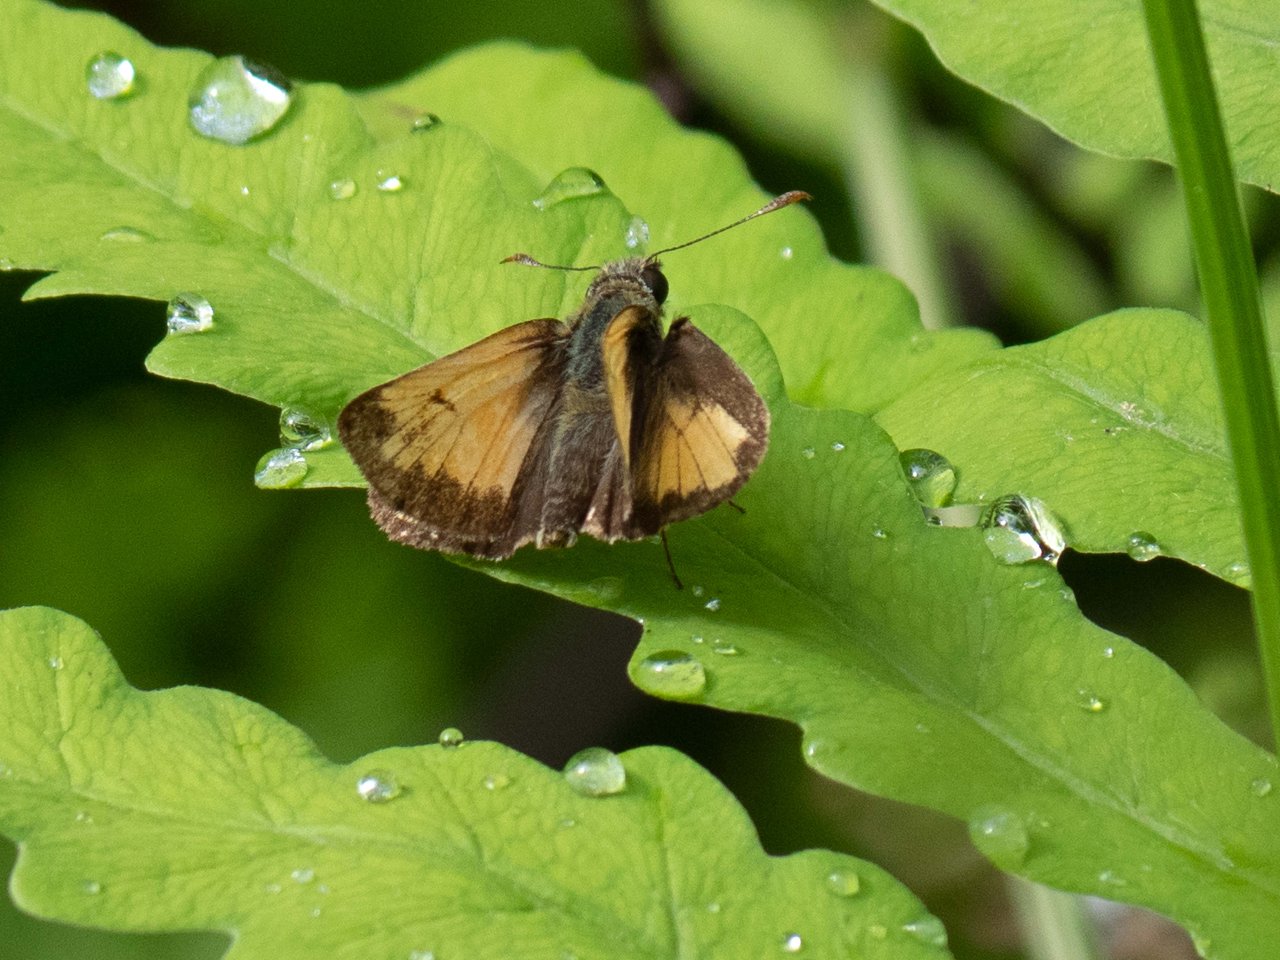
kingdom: Animalia
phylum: Arthropoda
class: Insecta
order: Lepidoptera
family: Hesperiidae
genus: Lon
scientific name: Lon hobomok
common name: Hobomok Skipper
